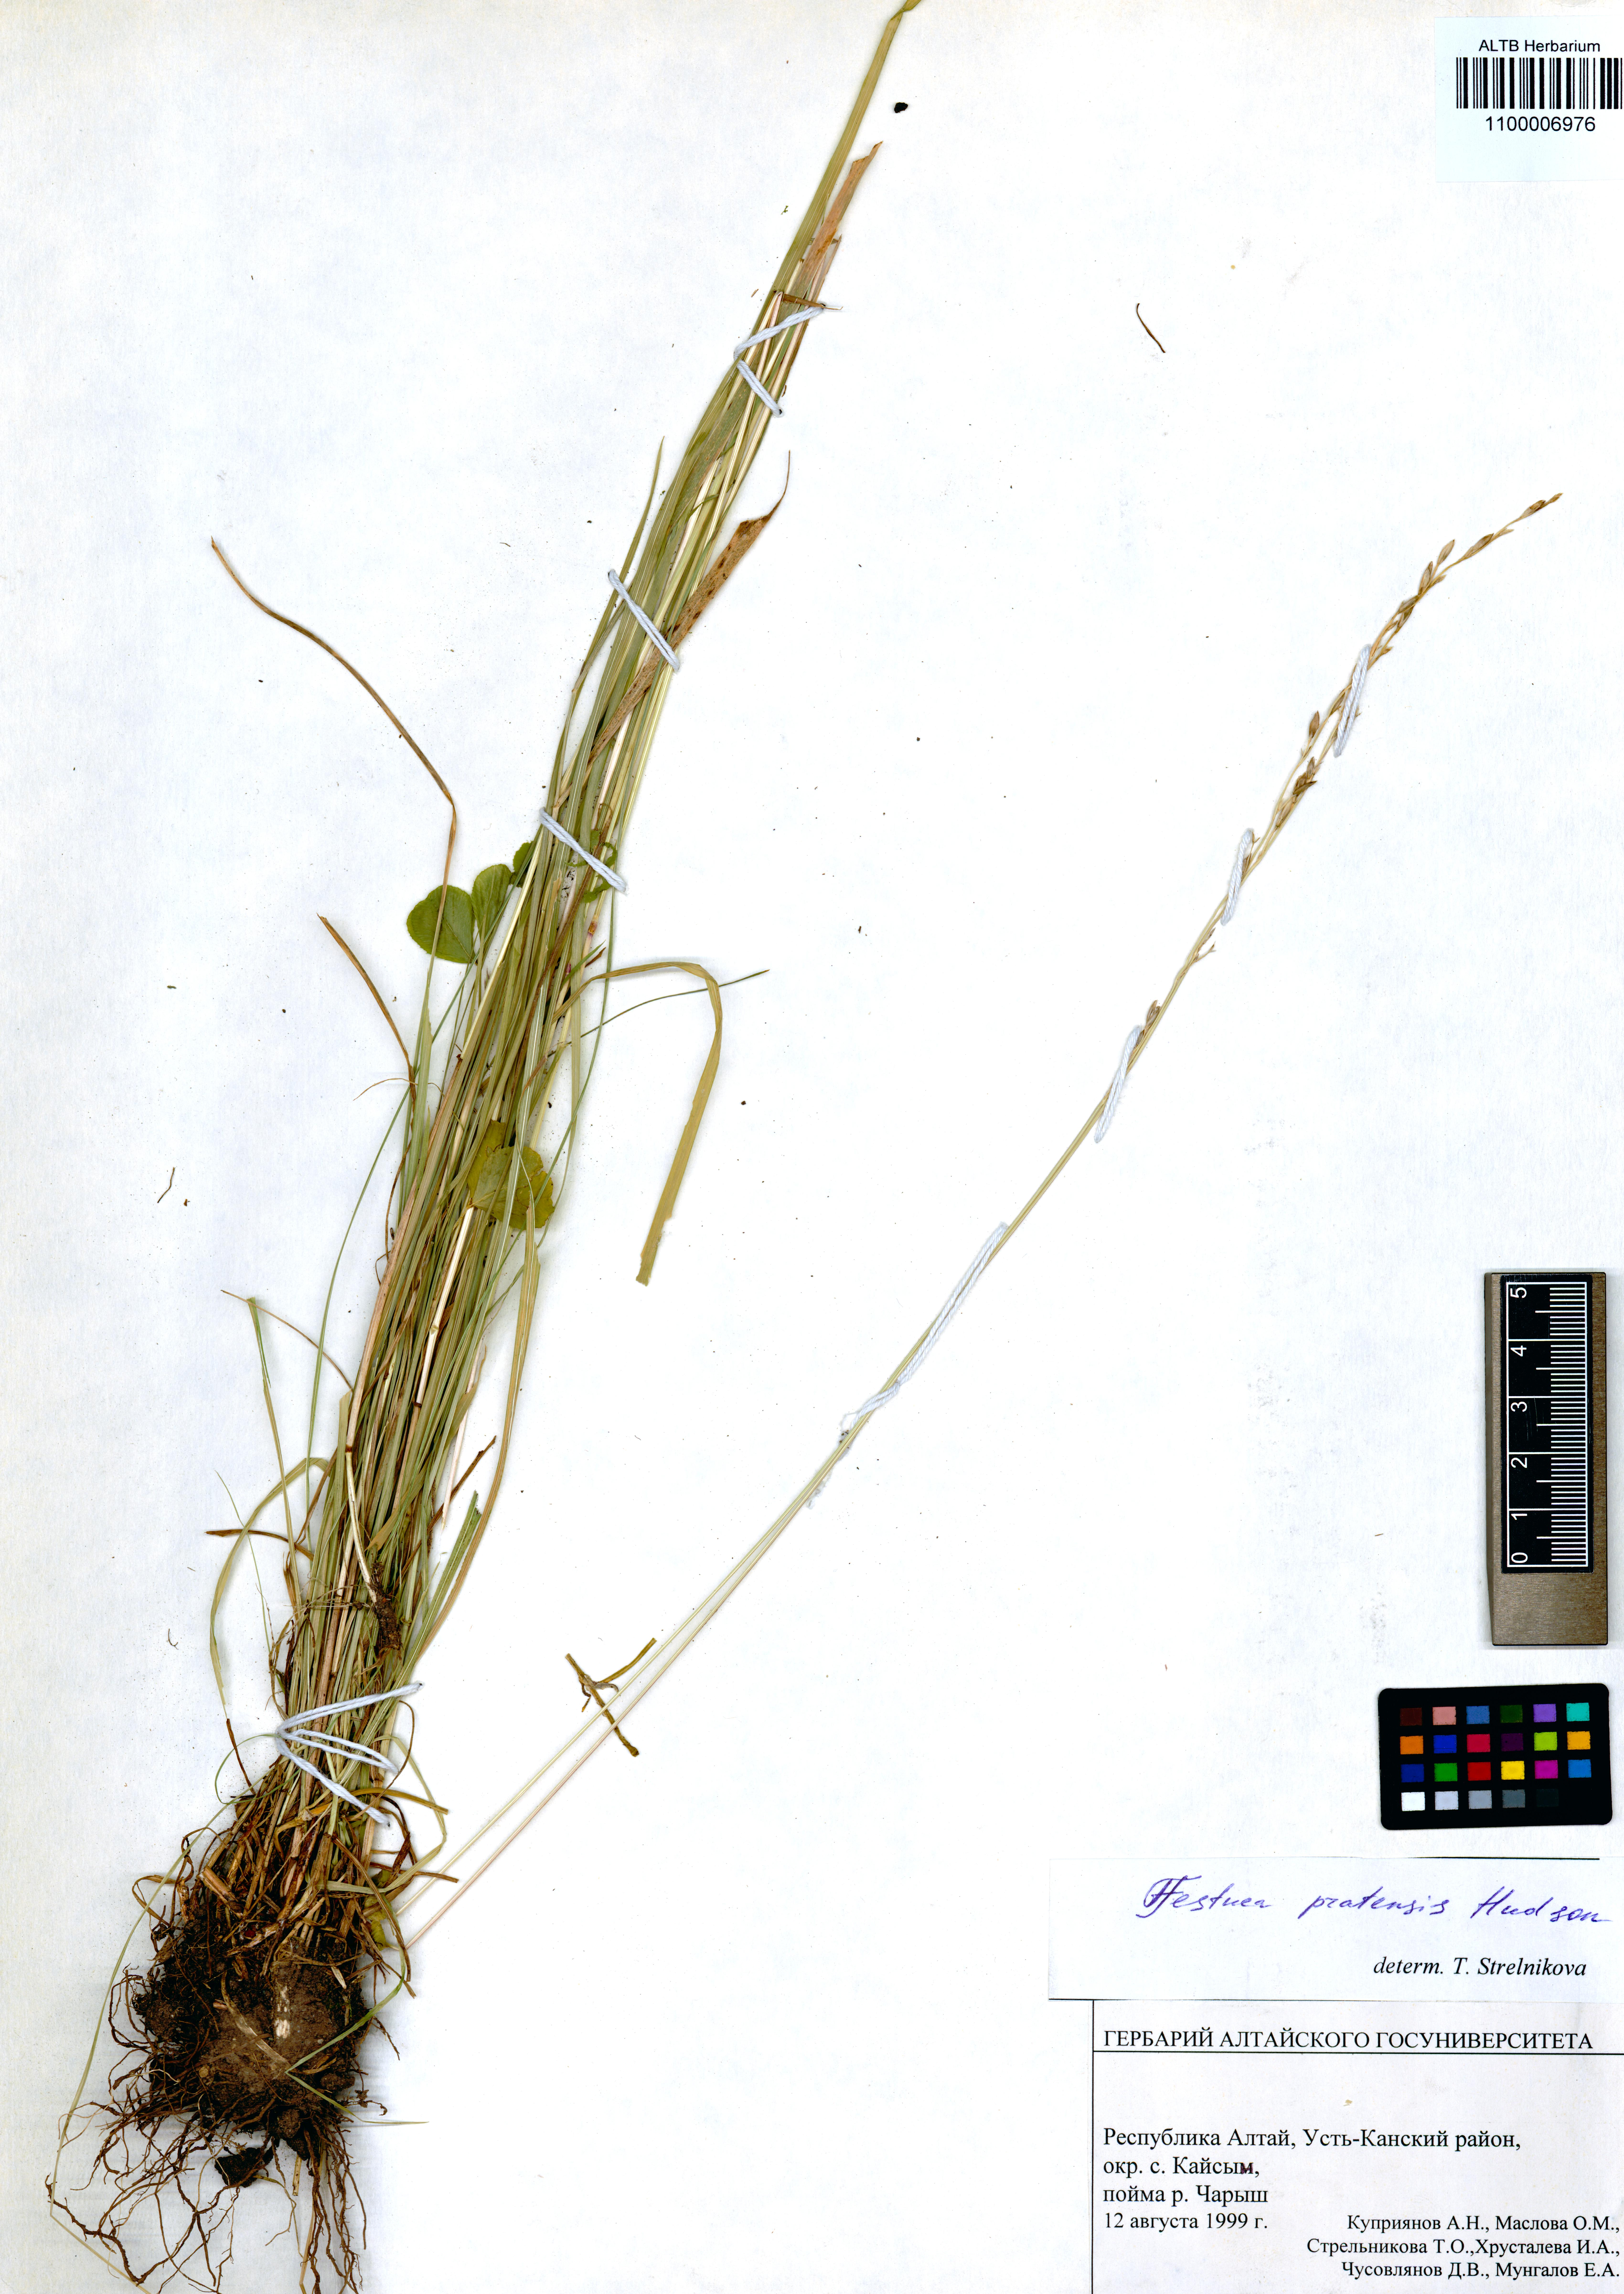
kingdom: Plantae
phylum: Tracheophyta
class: Liliopsida
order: Poales
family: Poaceae
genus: Lolium
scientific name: Lolium pratense
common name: Dover grass
